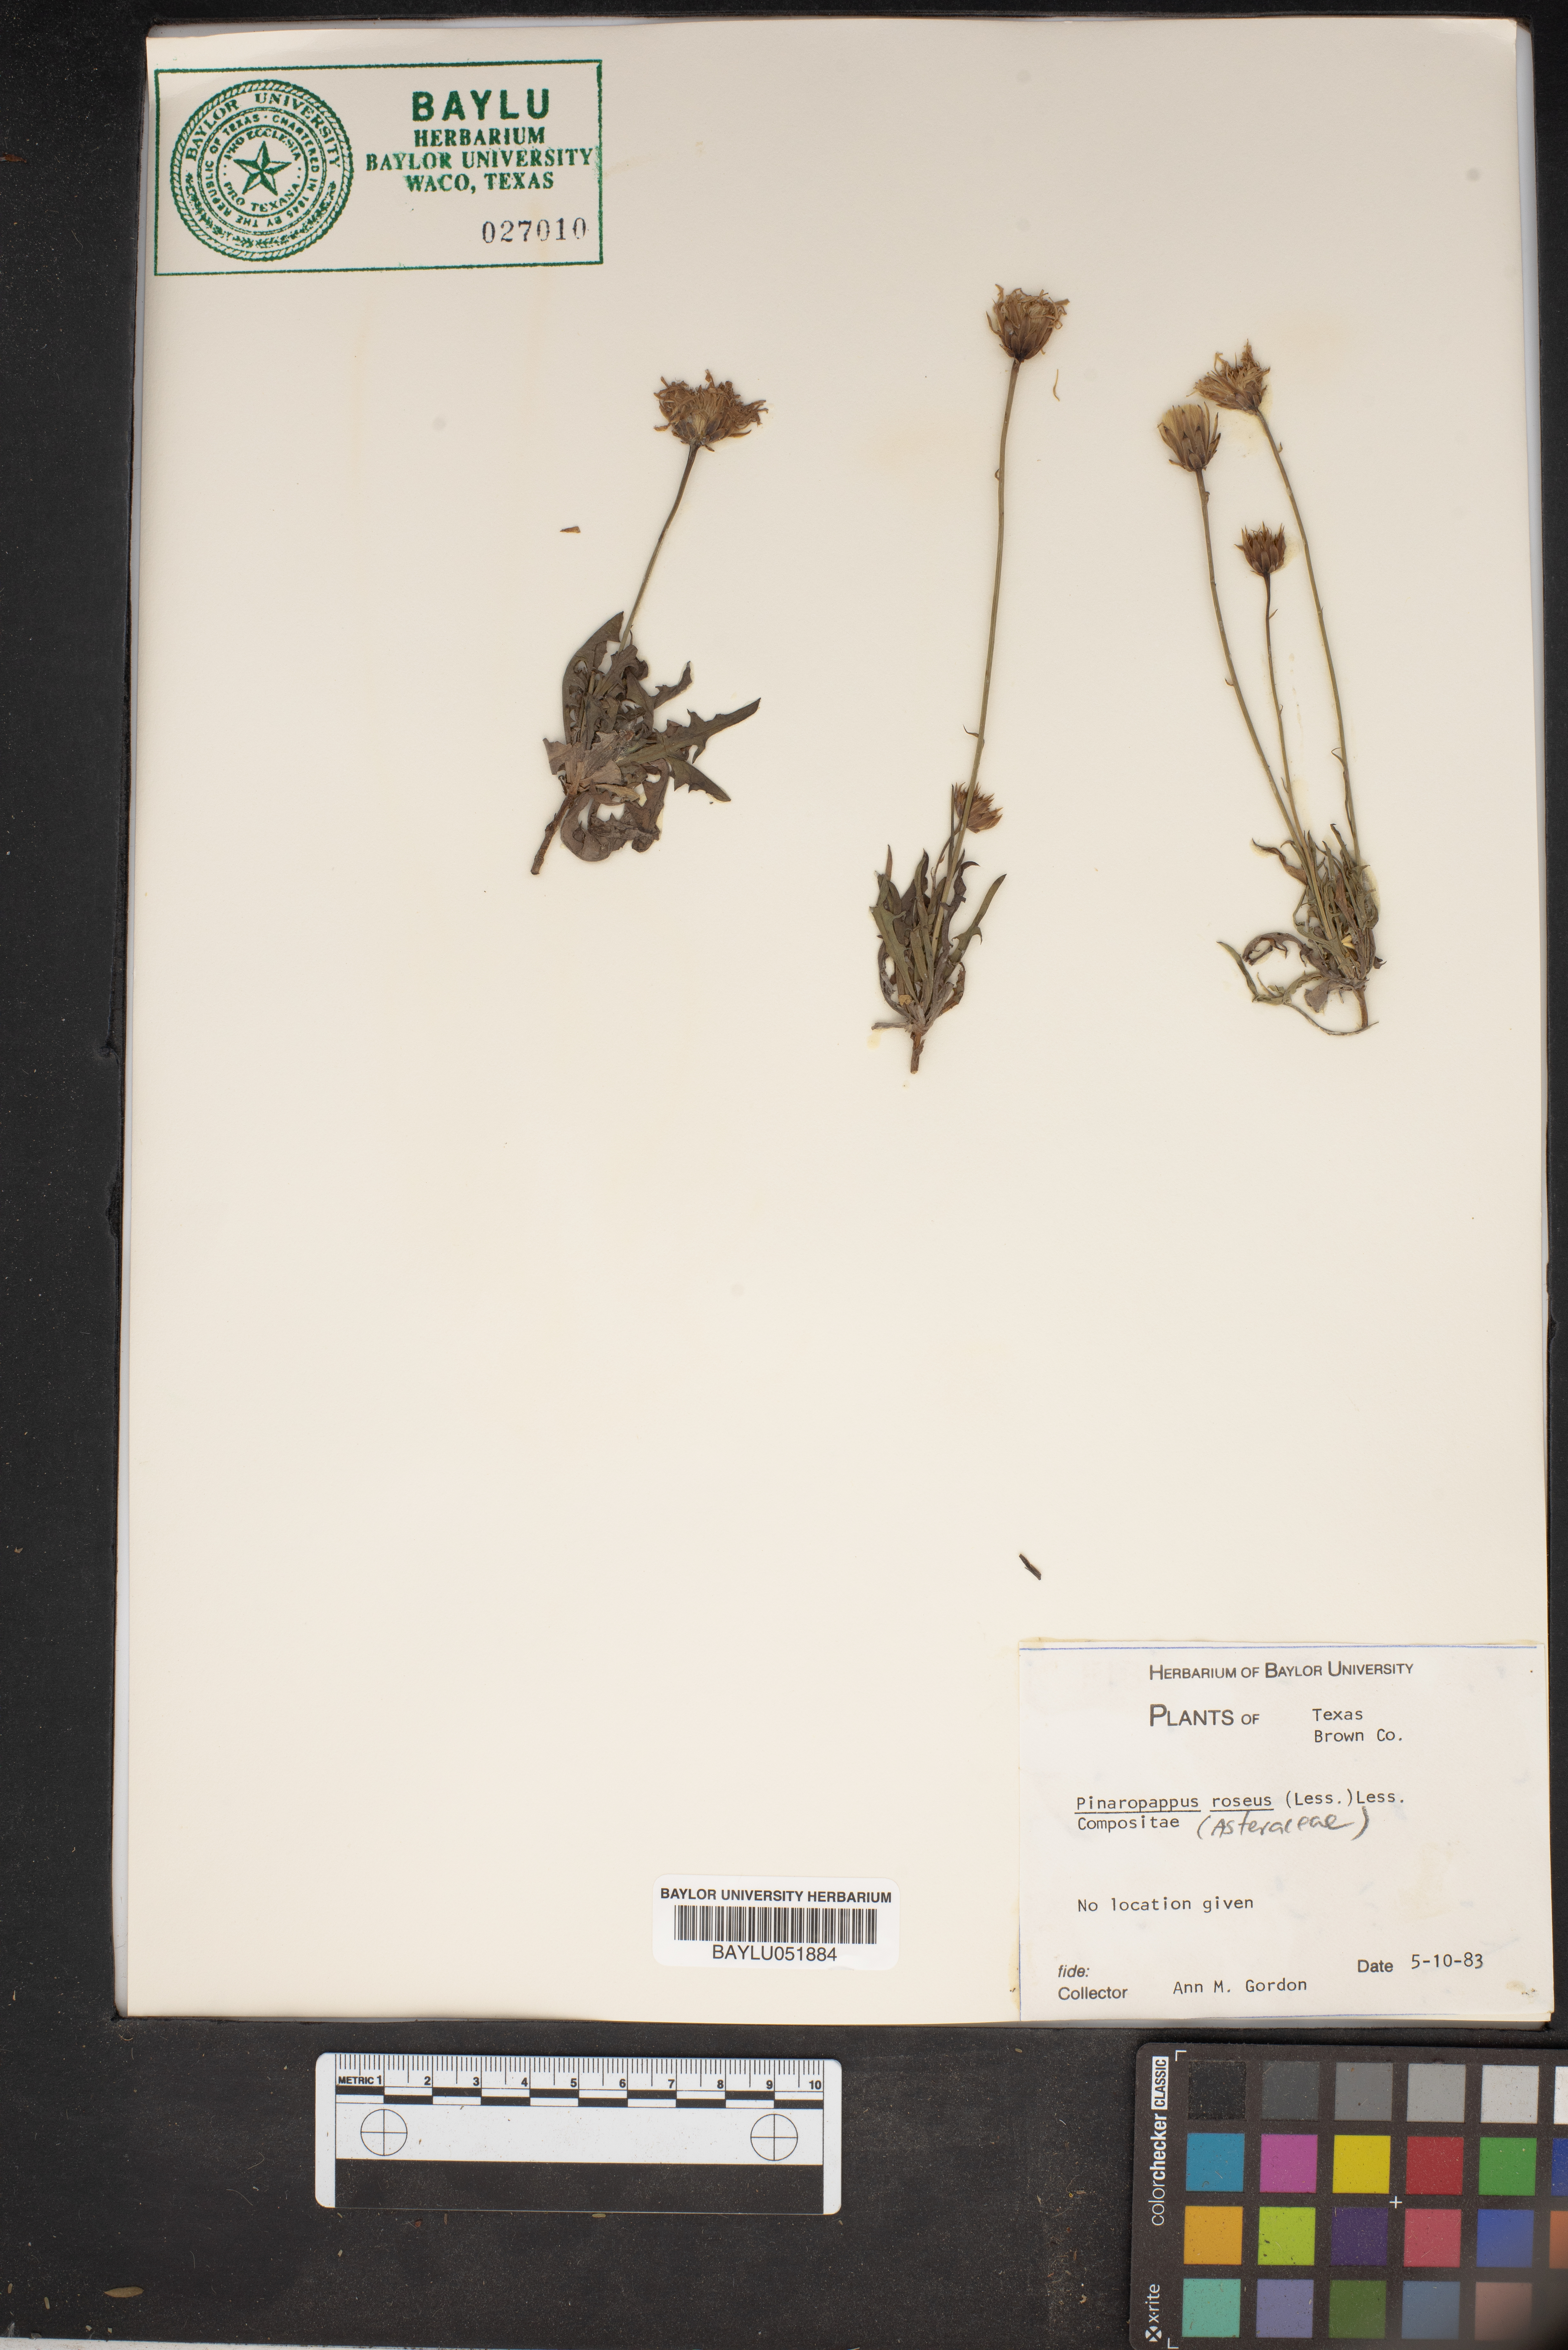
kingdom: Plantae
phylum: Tracheophyta
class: Magnoliopsida
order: Asterales
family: Asteraceae
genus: Pinaropappus
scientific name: Pinaropappus roseus
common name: Rock-lettuce
